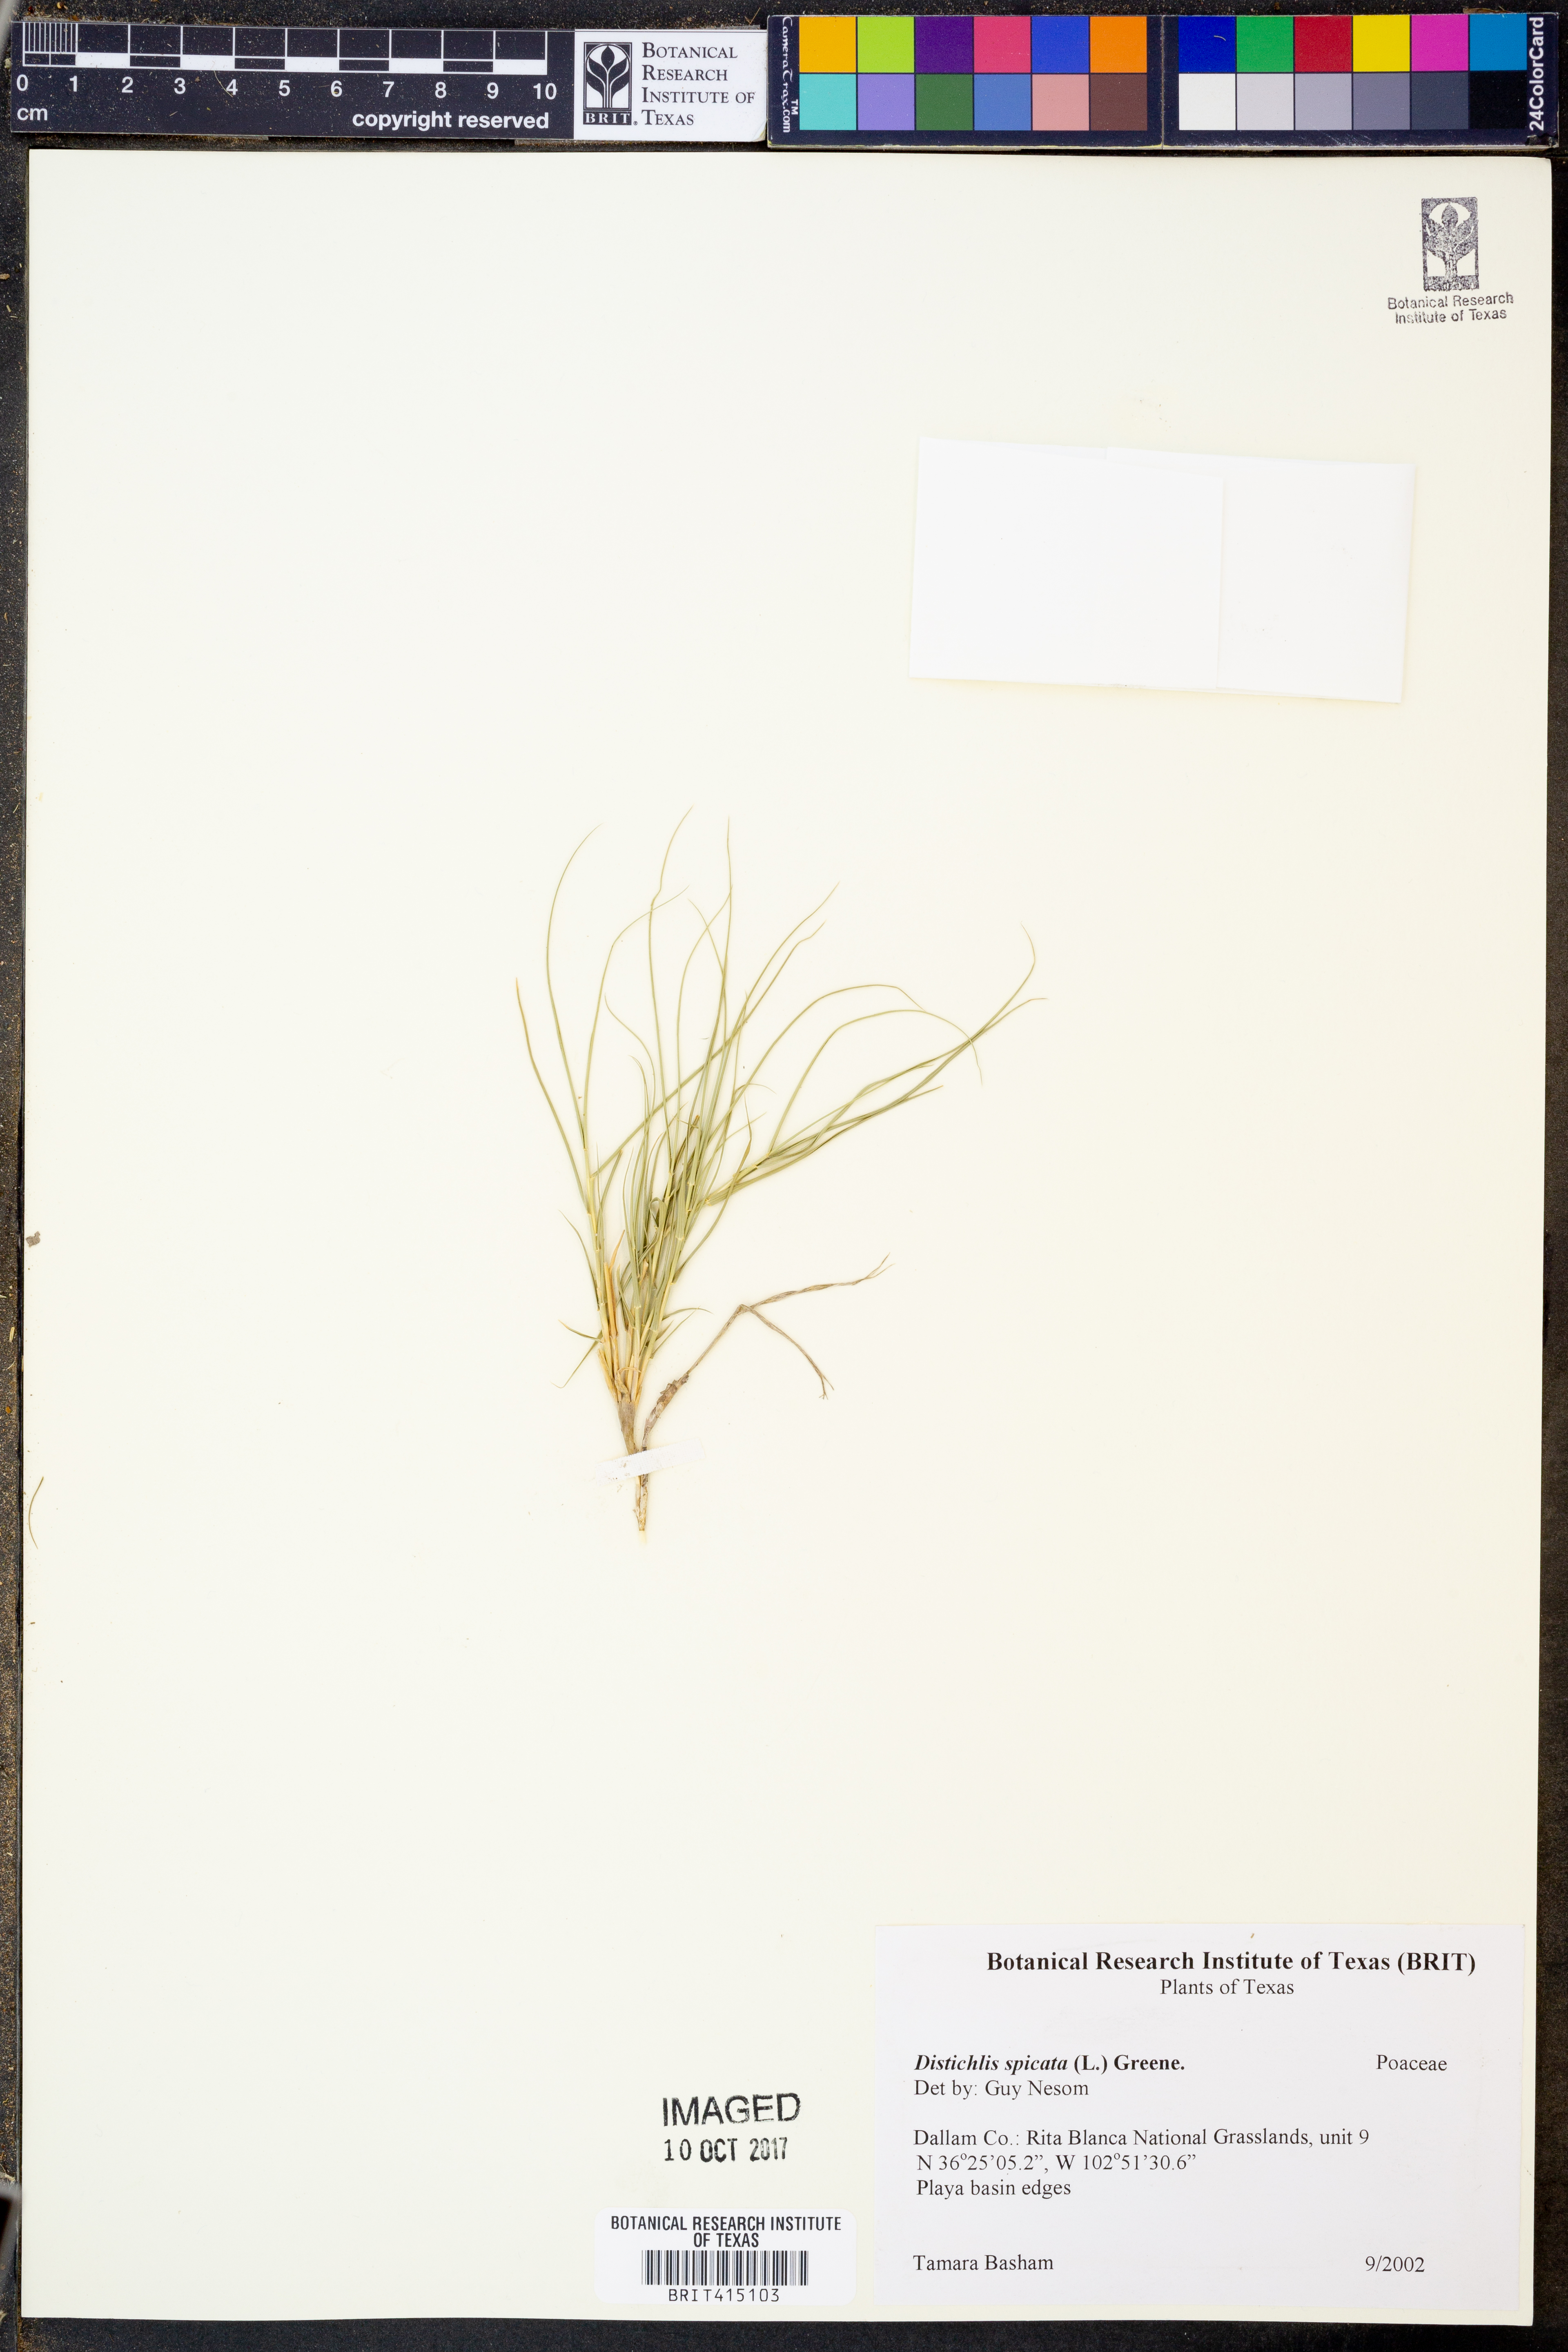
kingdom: Plantae
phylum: Tracheophyta
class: Liliopsida
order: Poales
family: Poaceae
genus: Distichlis
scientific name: Distichlis spicata
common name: Saltgrass
